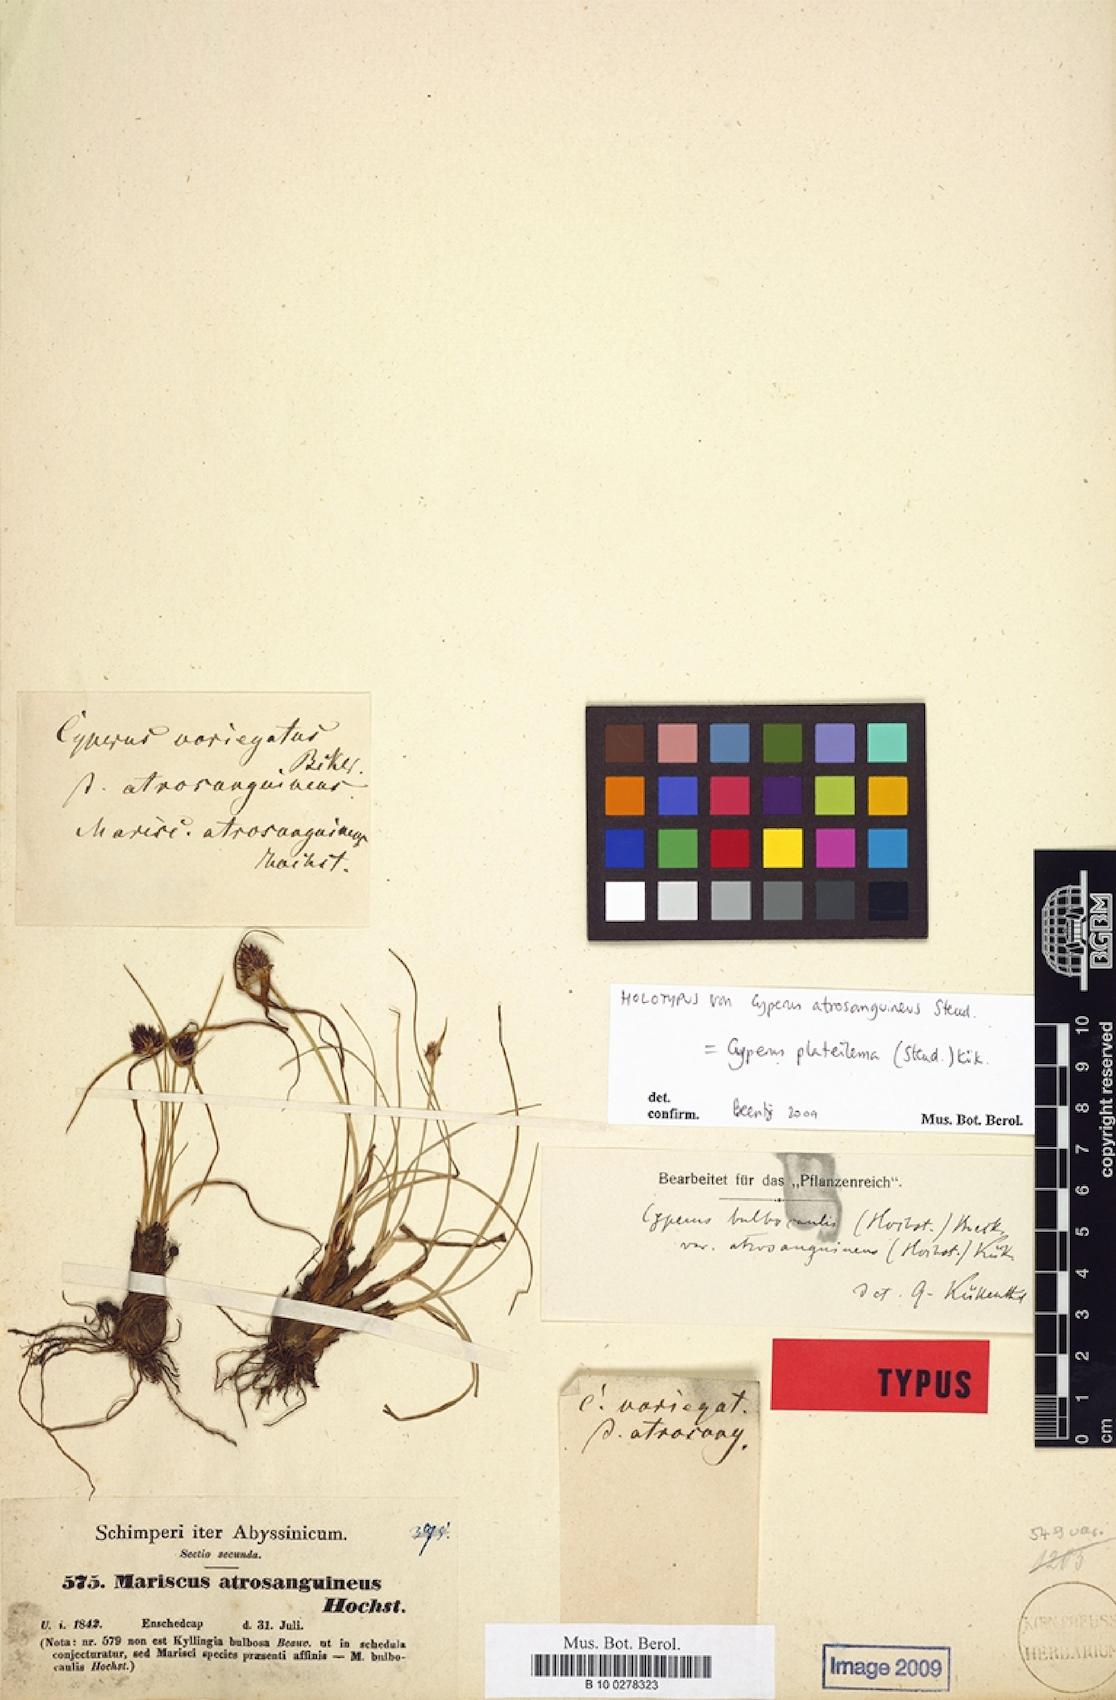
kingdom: Plantae
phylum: Tracheophyta
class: Liliopsida
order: Poales
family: Cyperaceae
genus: Cyperus
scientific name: Cyperus plateilema
